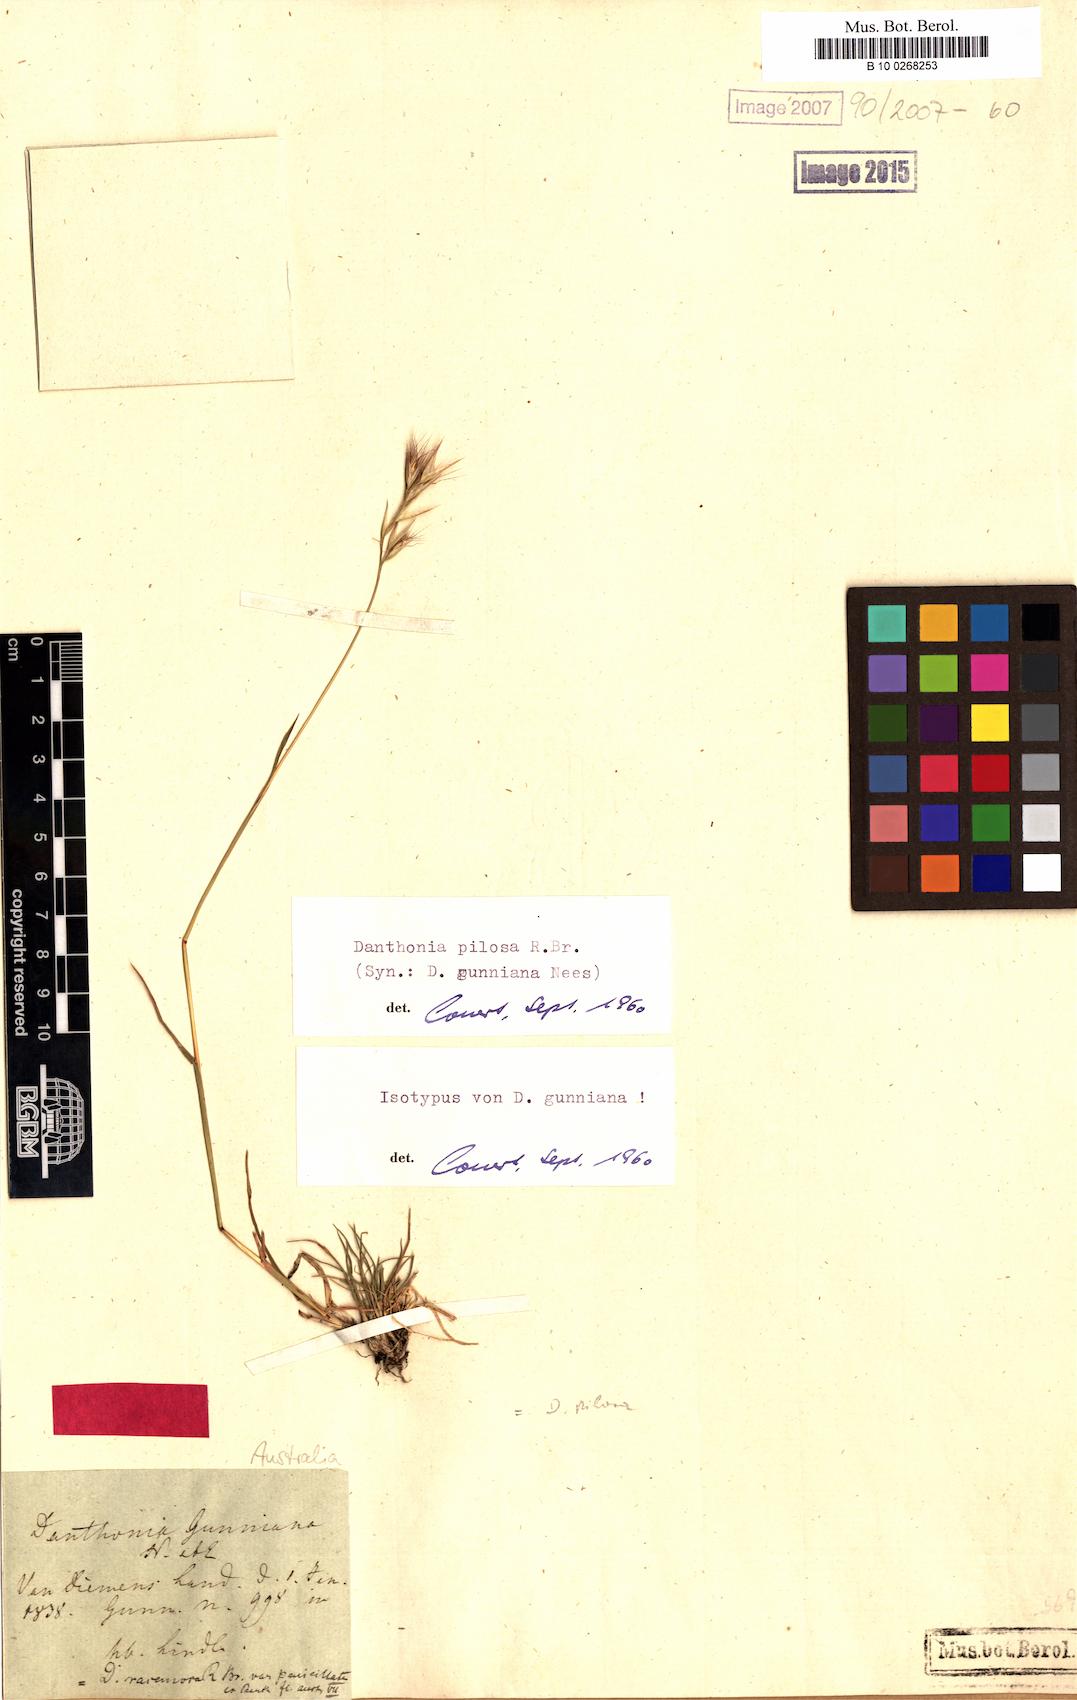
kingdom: Plantae
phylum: Tracheophyta
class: Liliopsida
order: Poales
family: Poaceae
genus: Rytidosperma
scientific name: Rytidosperma pilosum
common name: Hairy wallaby grass
